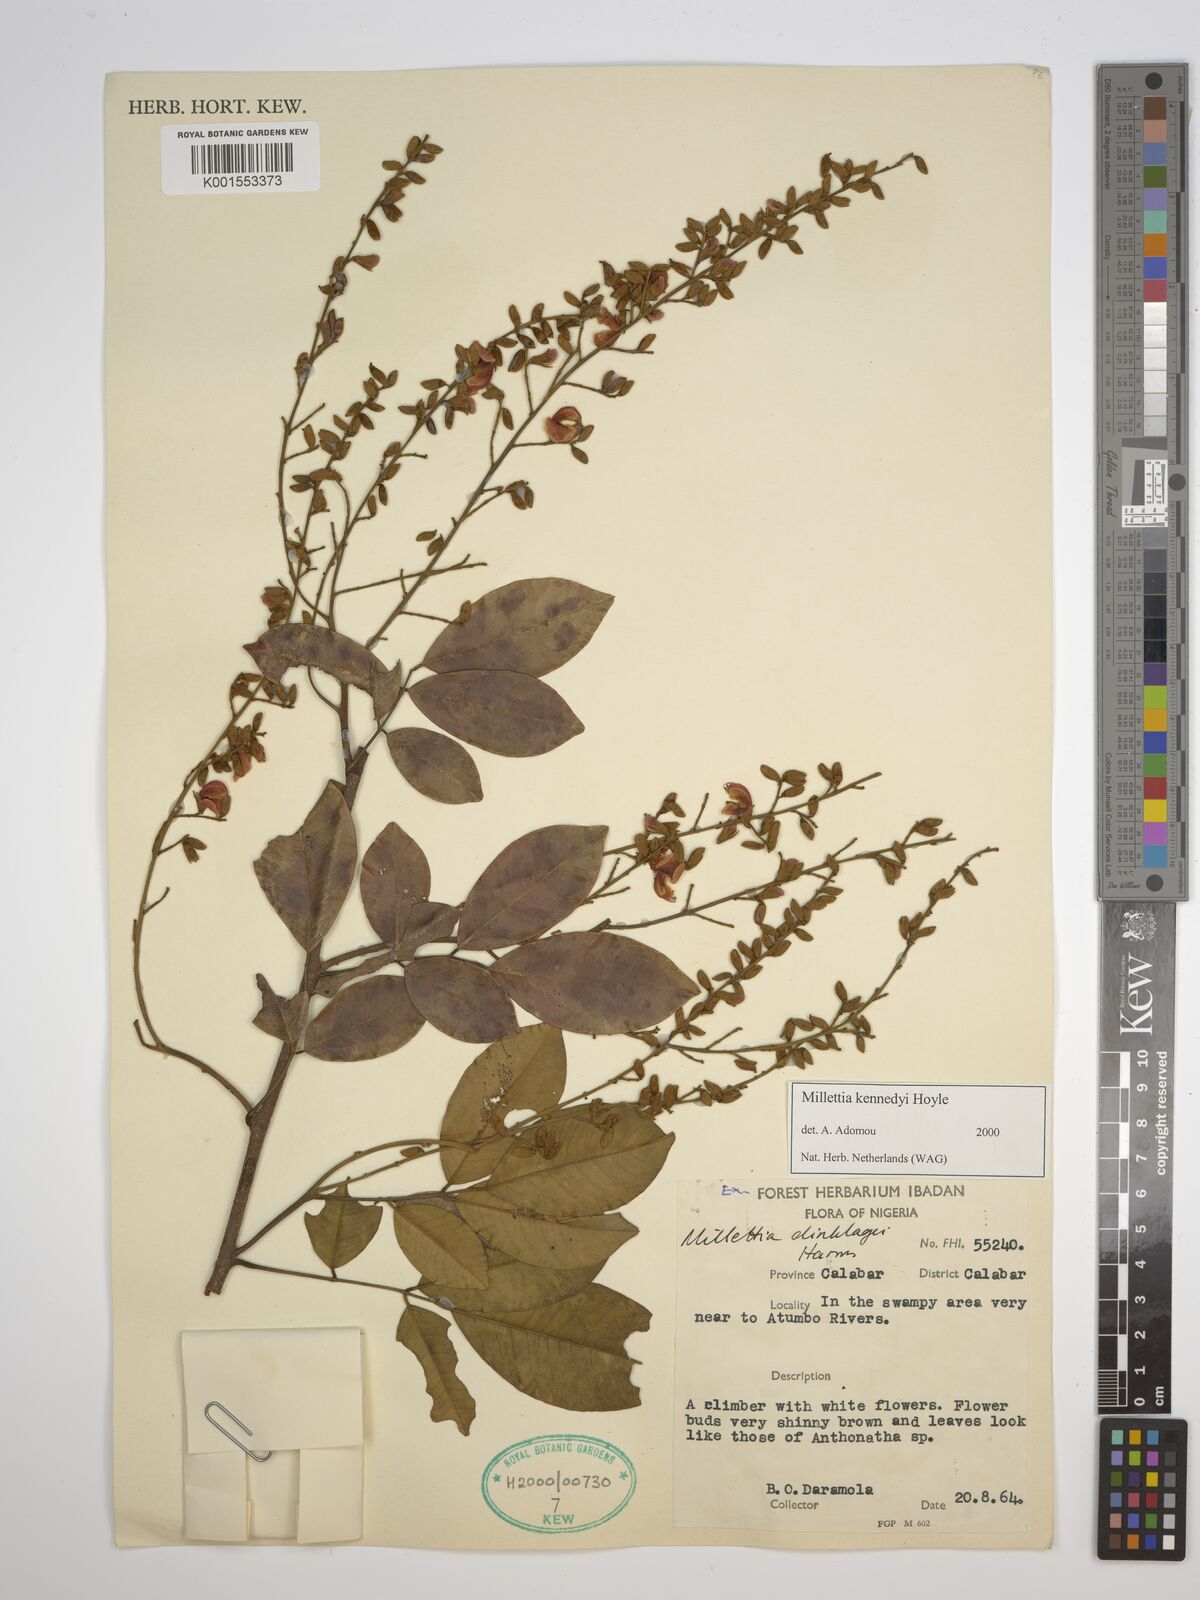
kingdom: Plantae
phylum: Tracheophyta
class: Magnoliopsida
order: Fabales
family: Fabaceae
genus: Millettia
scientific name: Millettia kennedyi
